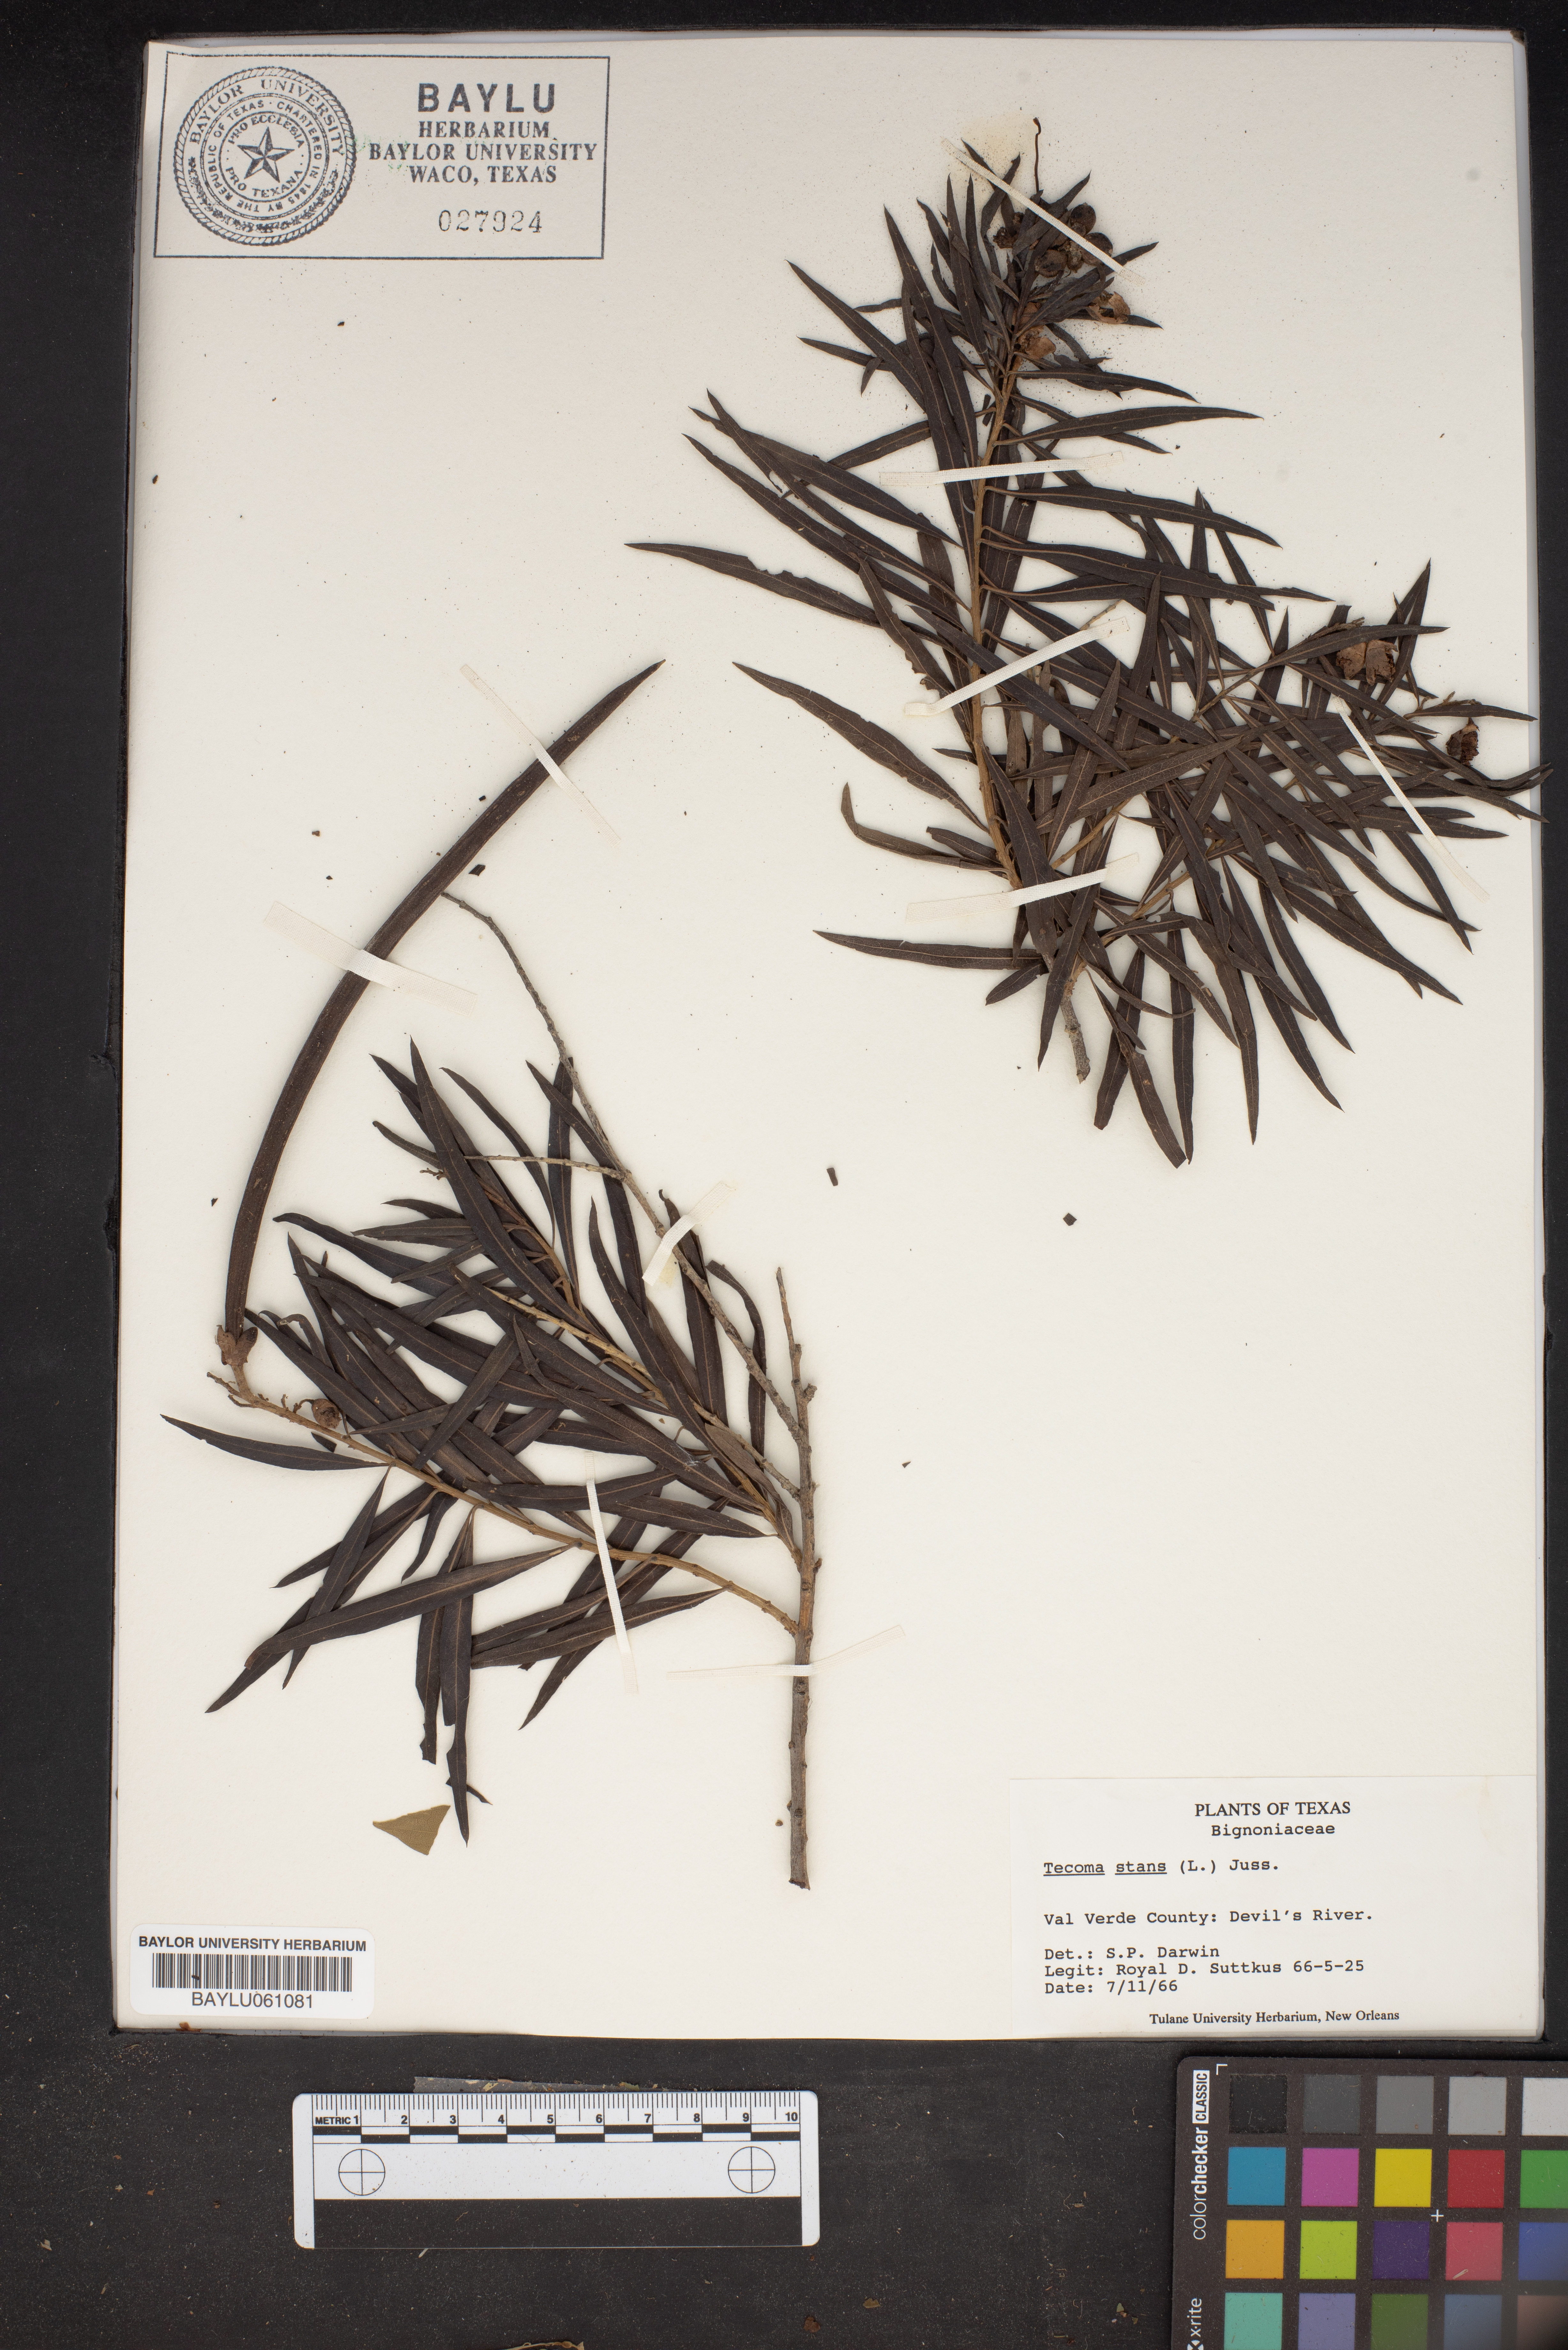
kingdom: Plantae
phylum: Tracheophyta
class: Magnoliopsida
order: Lamiales
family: Bignoniaceae
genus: Tecoma
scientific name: Tecoma stans
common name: Yellow trumpetbush
